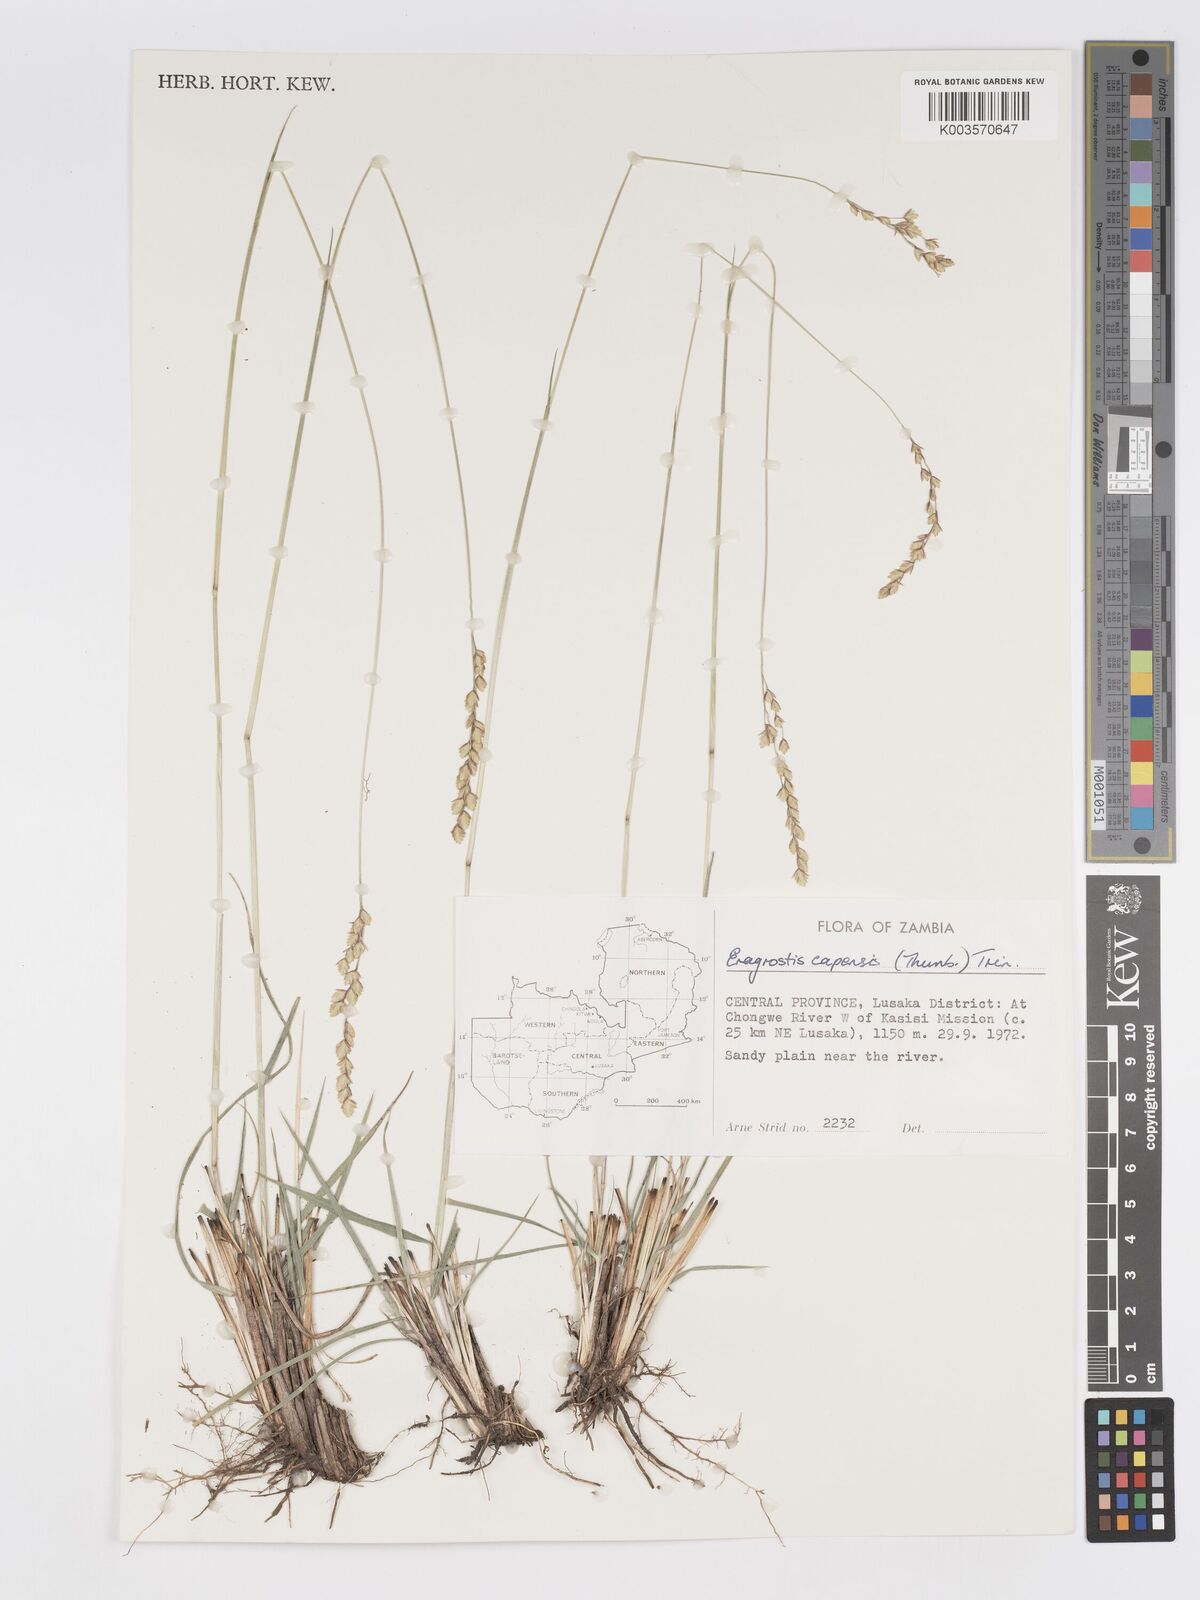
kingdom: Plantae
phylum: Tracheophyta
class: Liliopsida
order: Poales
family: Poaceae
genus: Eragrostis
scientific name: Eragrostis capensis
